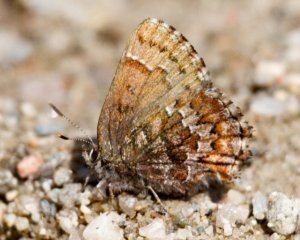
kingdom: Animalia
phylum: Arthropoda
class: Insecta
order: Lepidoptera
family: Lycaenidae
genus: Incisalia
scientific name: Incisalia niphon
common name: Eastern Pine Elfin
